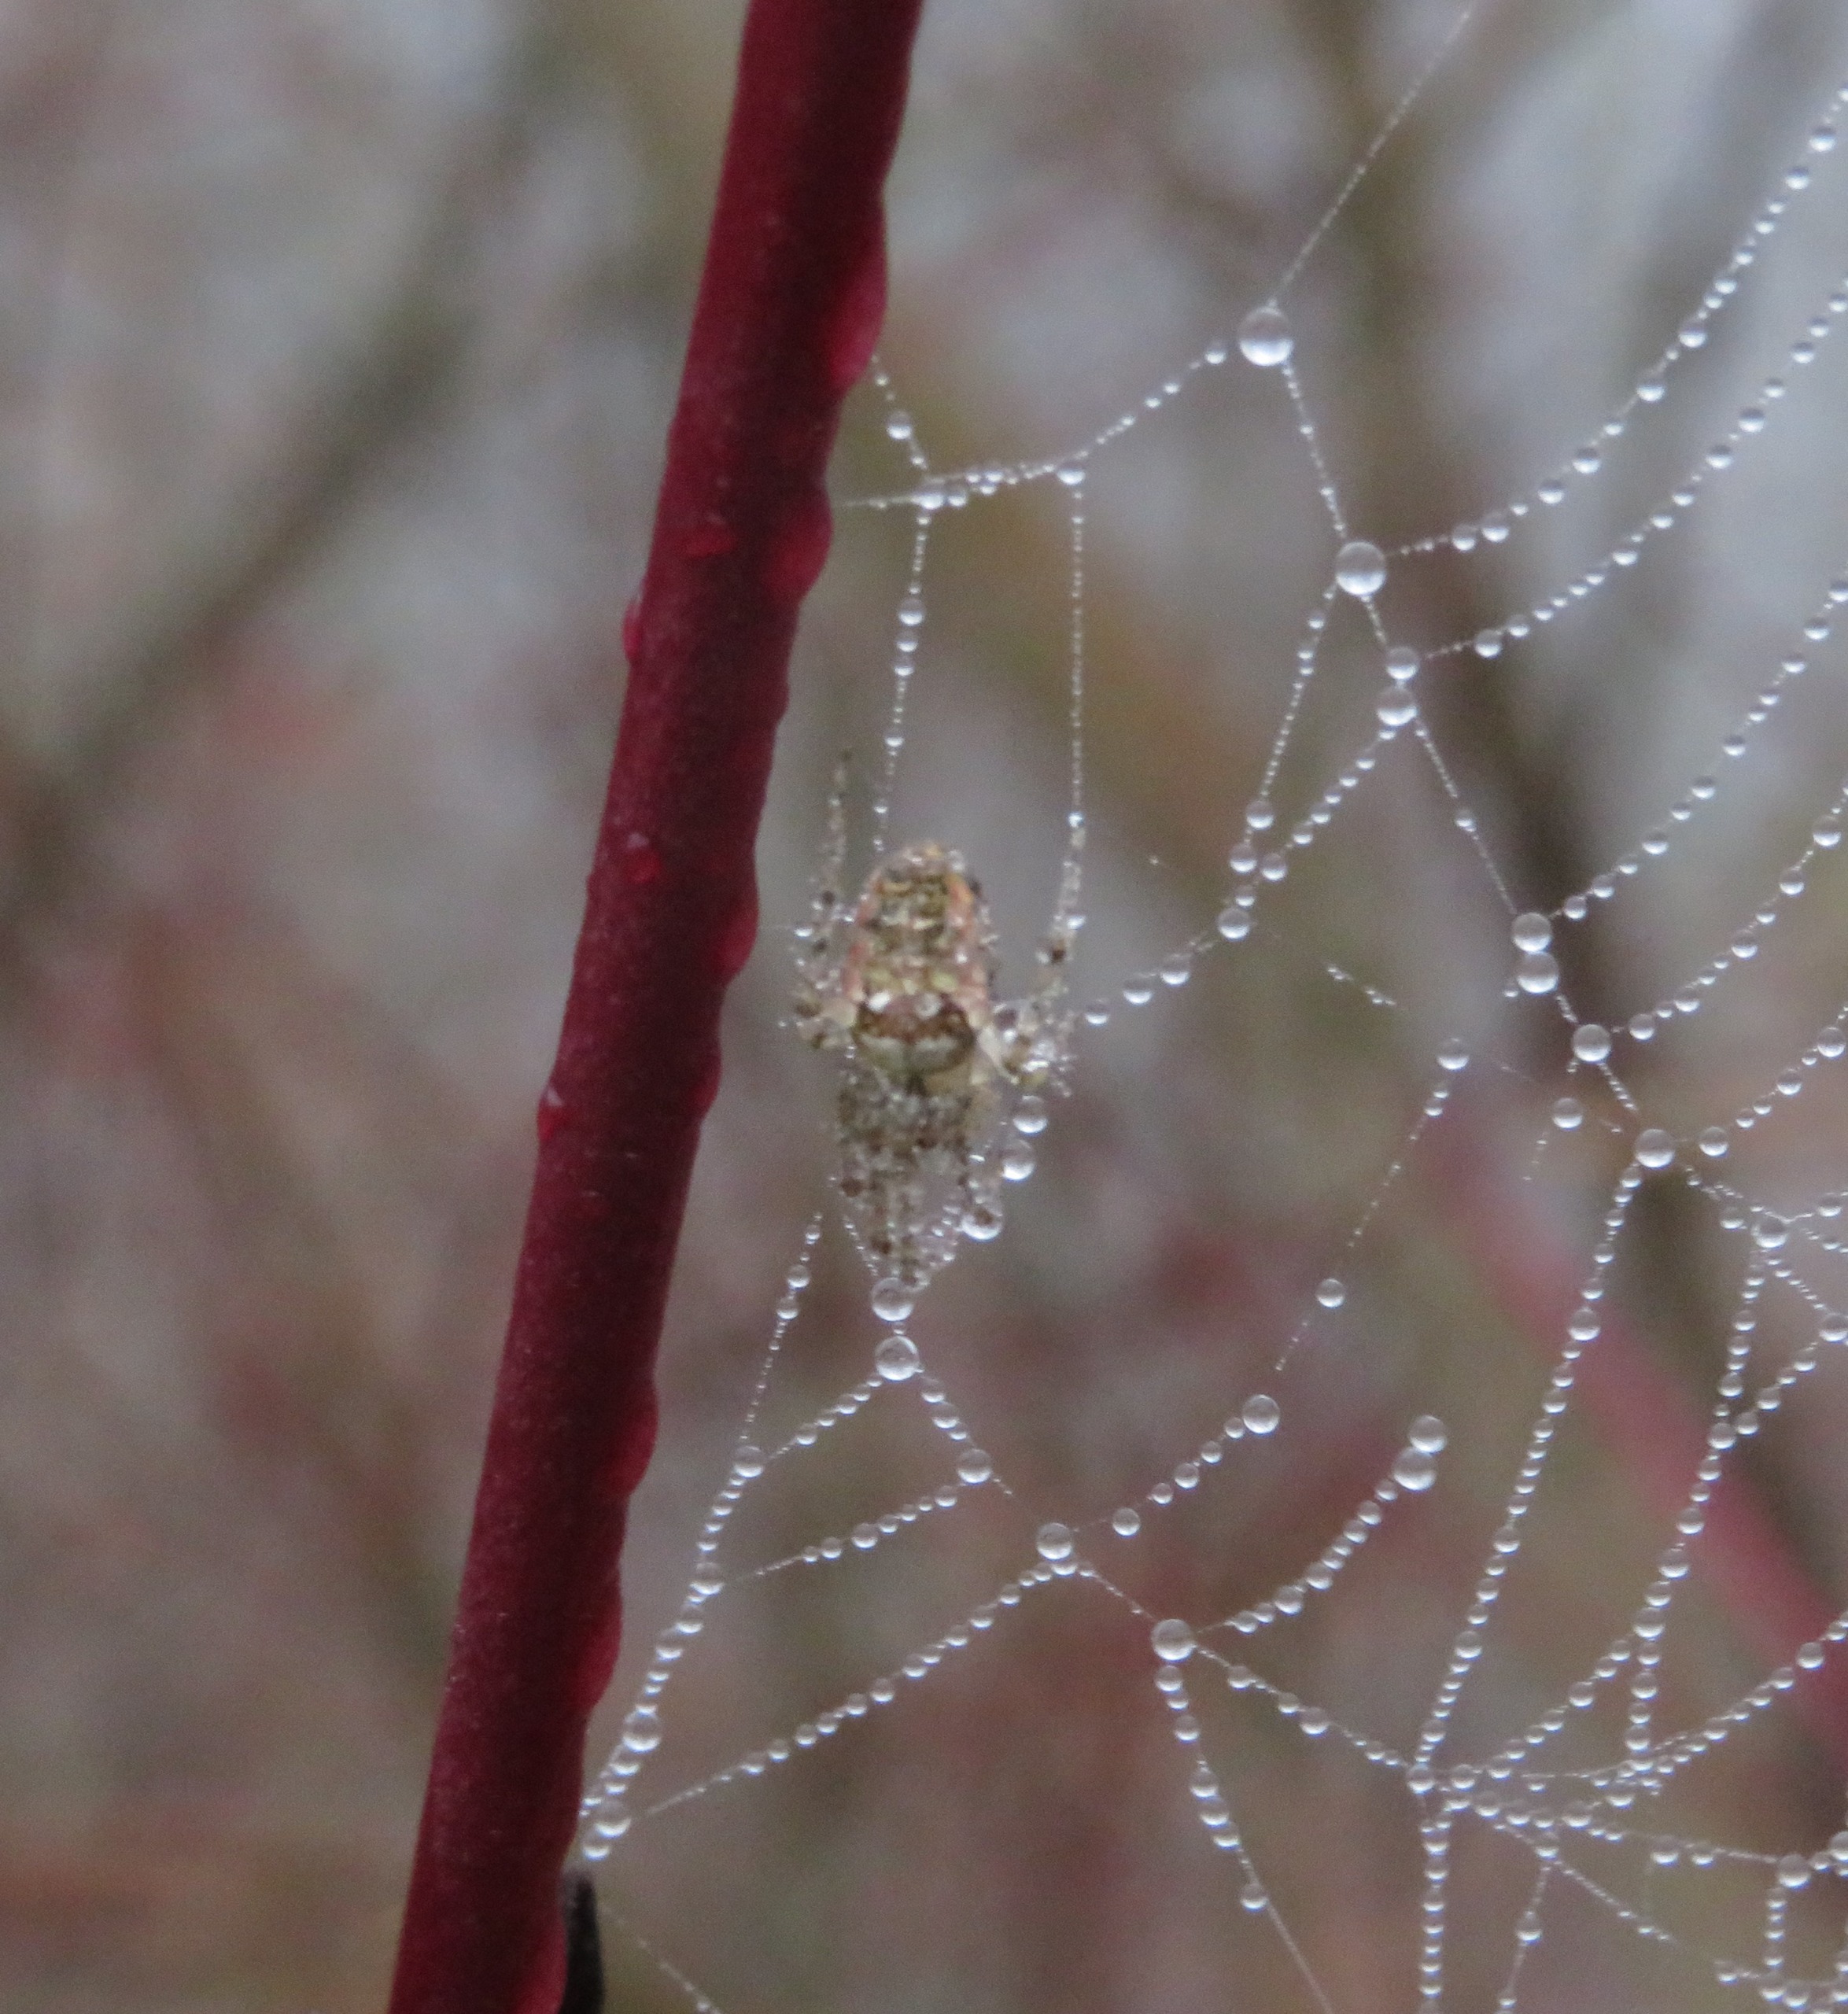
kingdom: Animalia
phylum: Arthropoda
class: Arachnida
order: Araneae
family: Tetragnathidae
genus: Metellina
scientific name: Metellina
